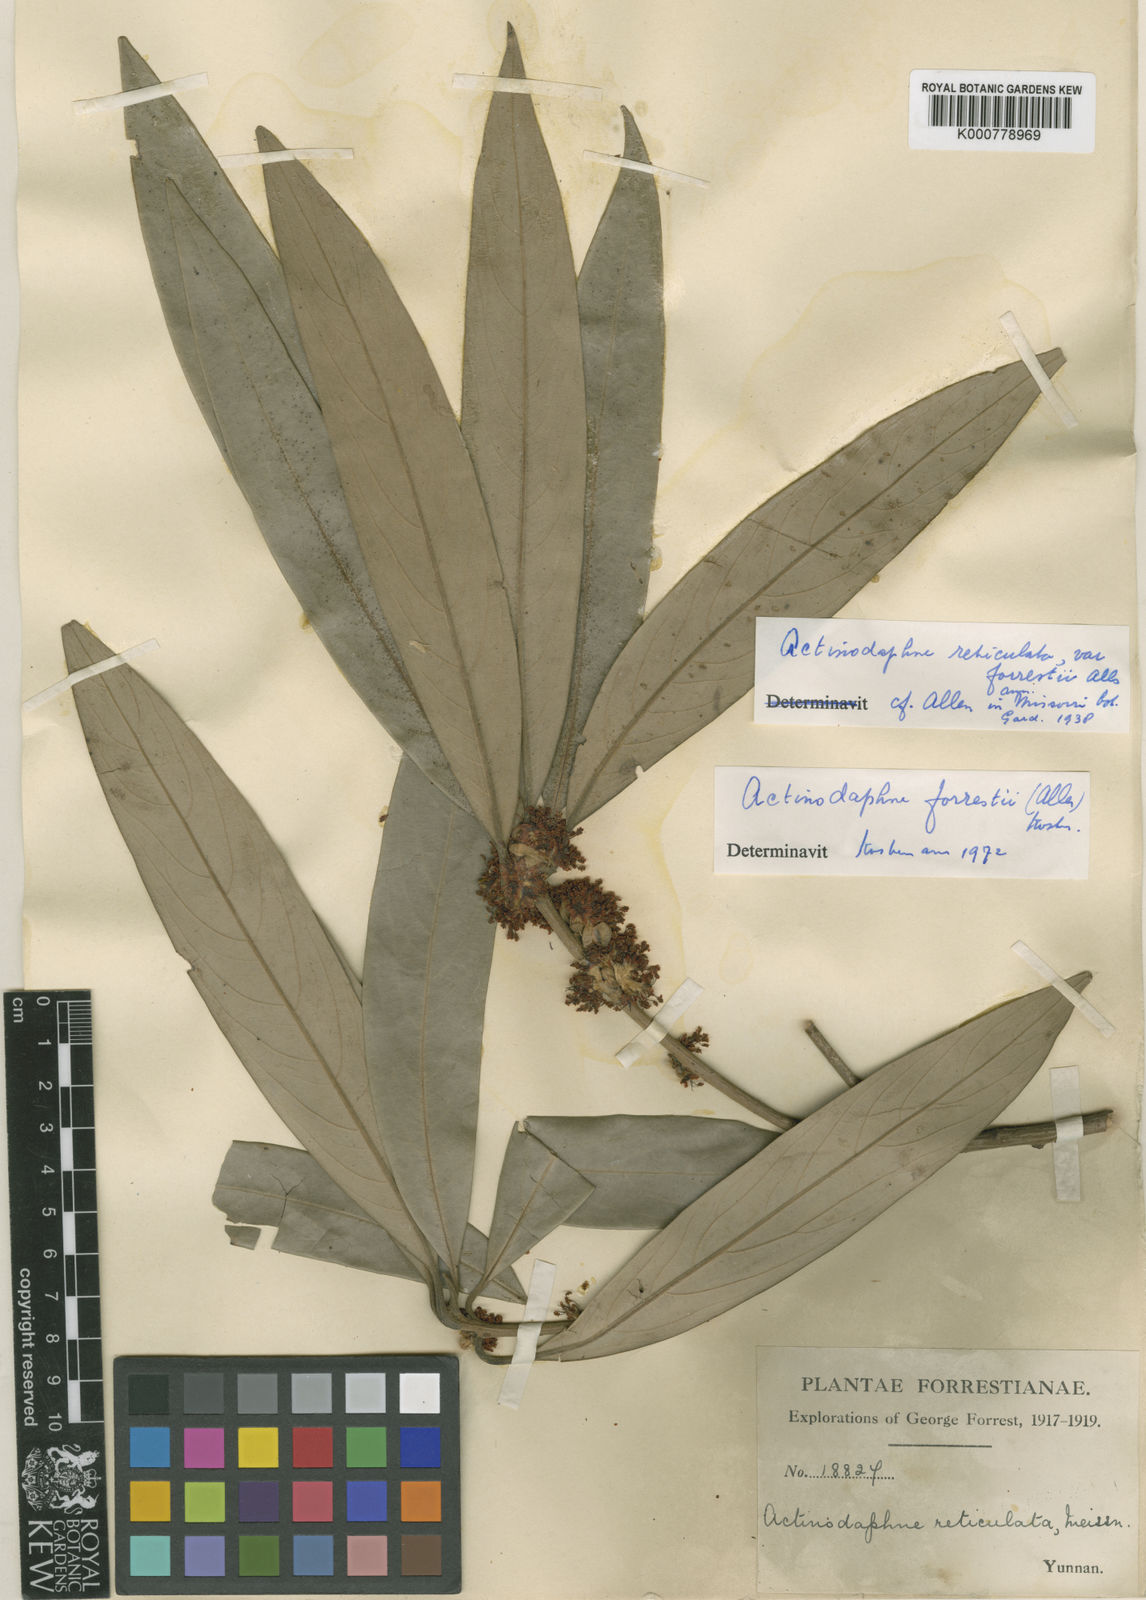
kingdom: Plantae
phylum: Tracheophyta
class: Magnoliopsida
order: Laurales
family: Lauraceae
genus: Actinodaphne
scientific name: Actinodaphne reticulata
